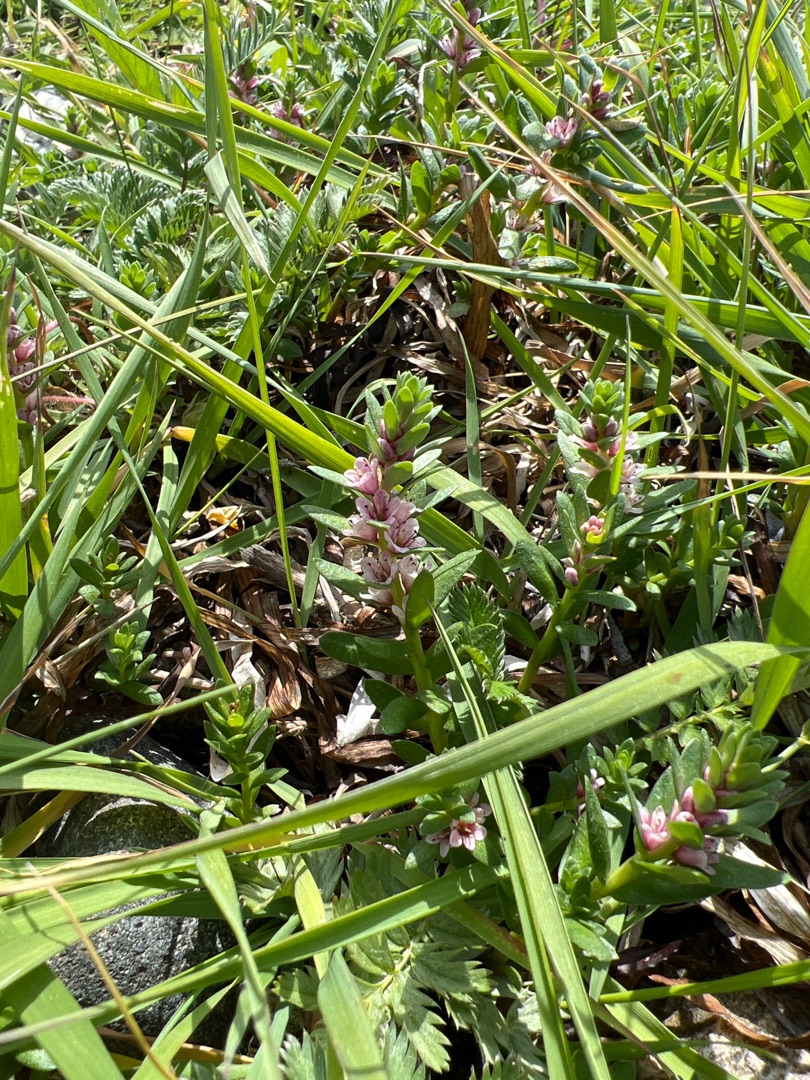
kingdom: Plantae
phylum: Tracheophyta
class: Magnoliopsida
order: Ericales
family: Primulaceae
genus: Lysimachia
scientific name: Lysimachia maritima
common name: Sandkryb
